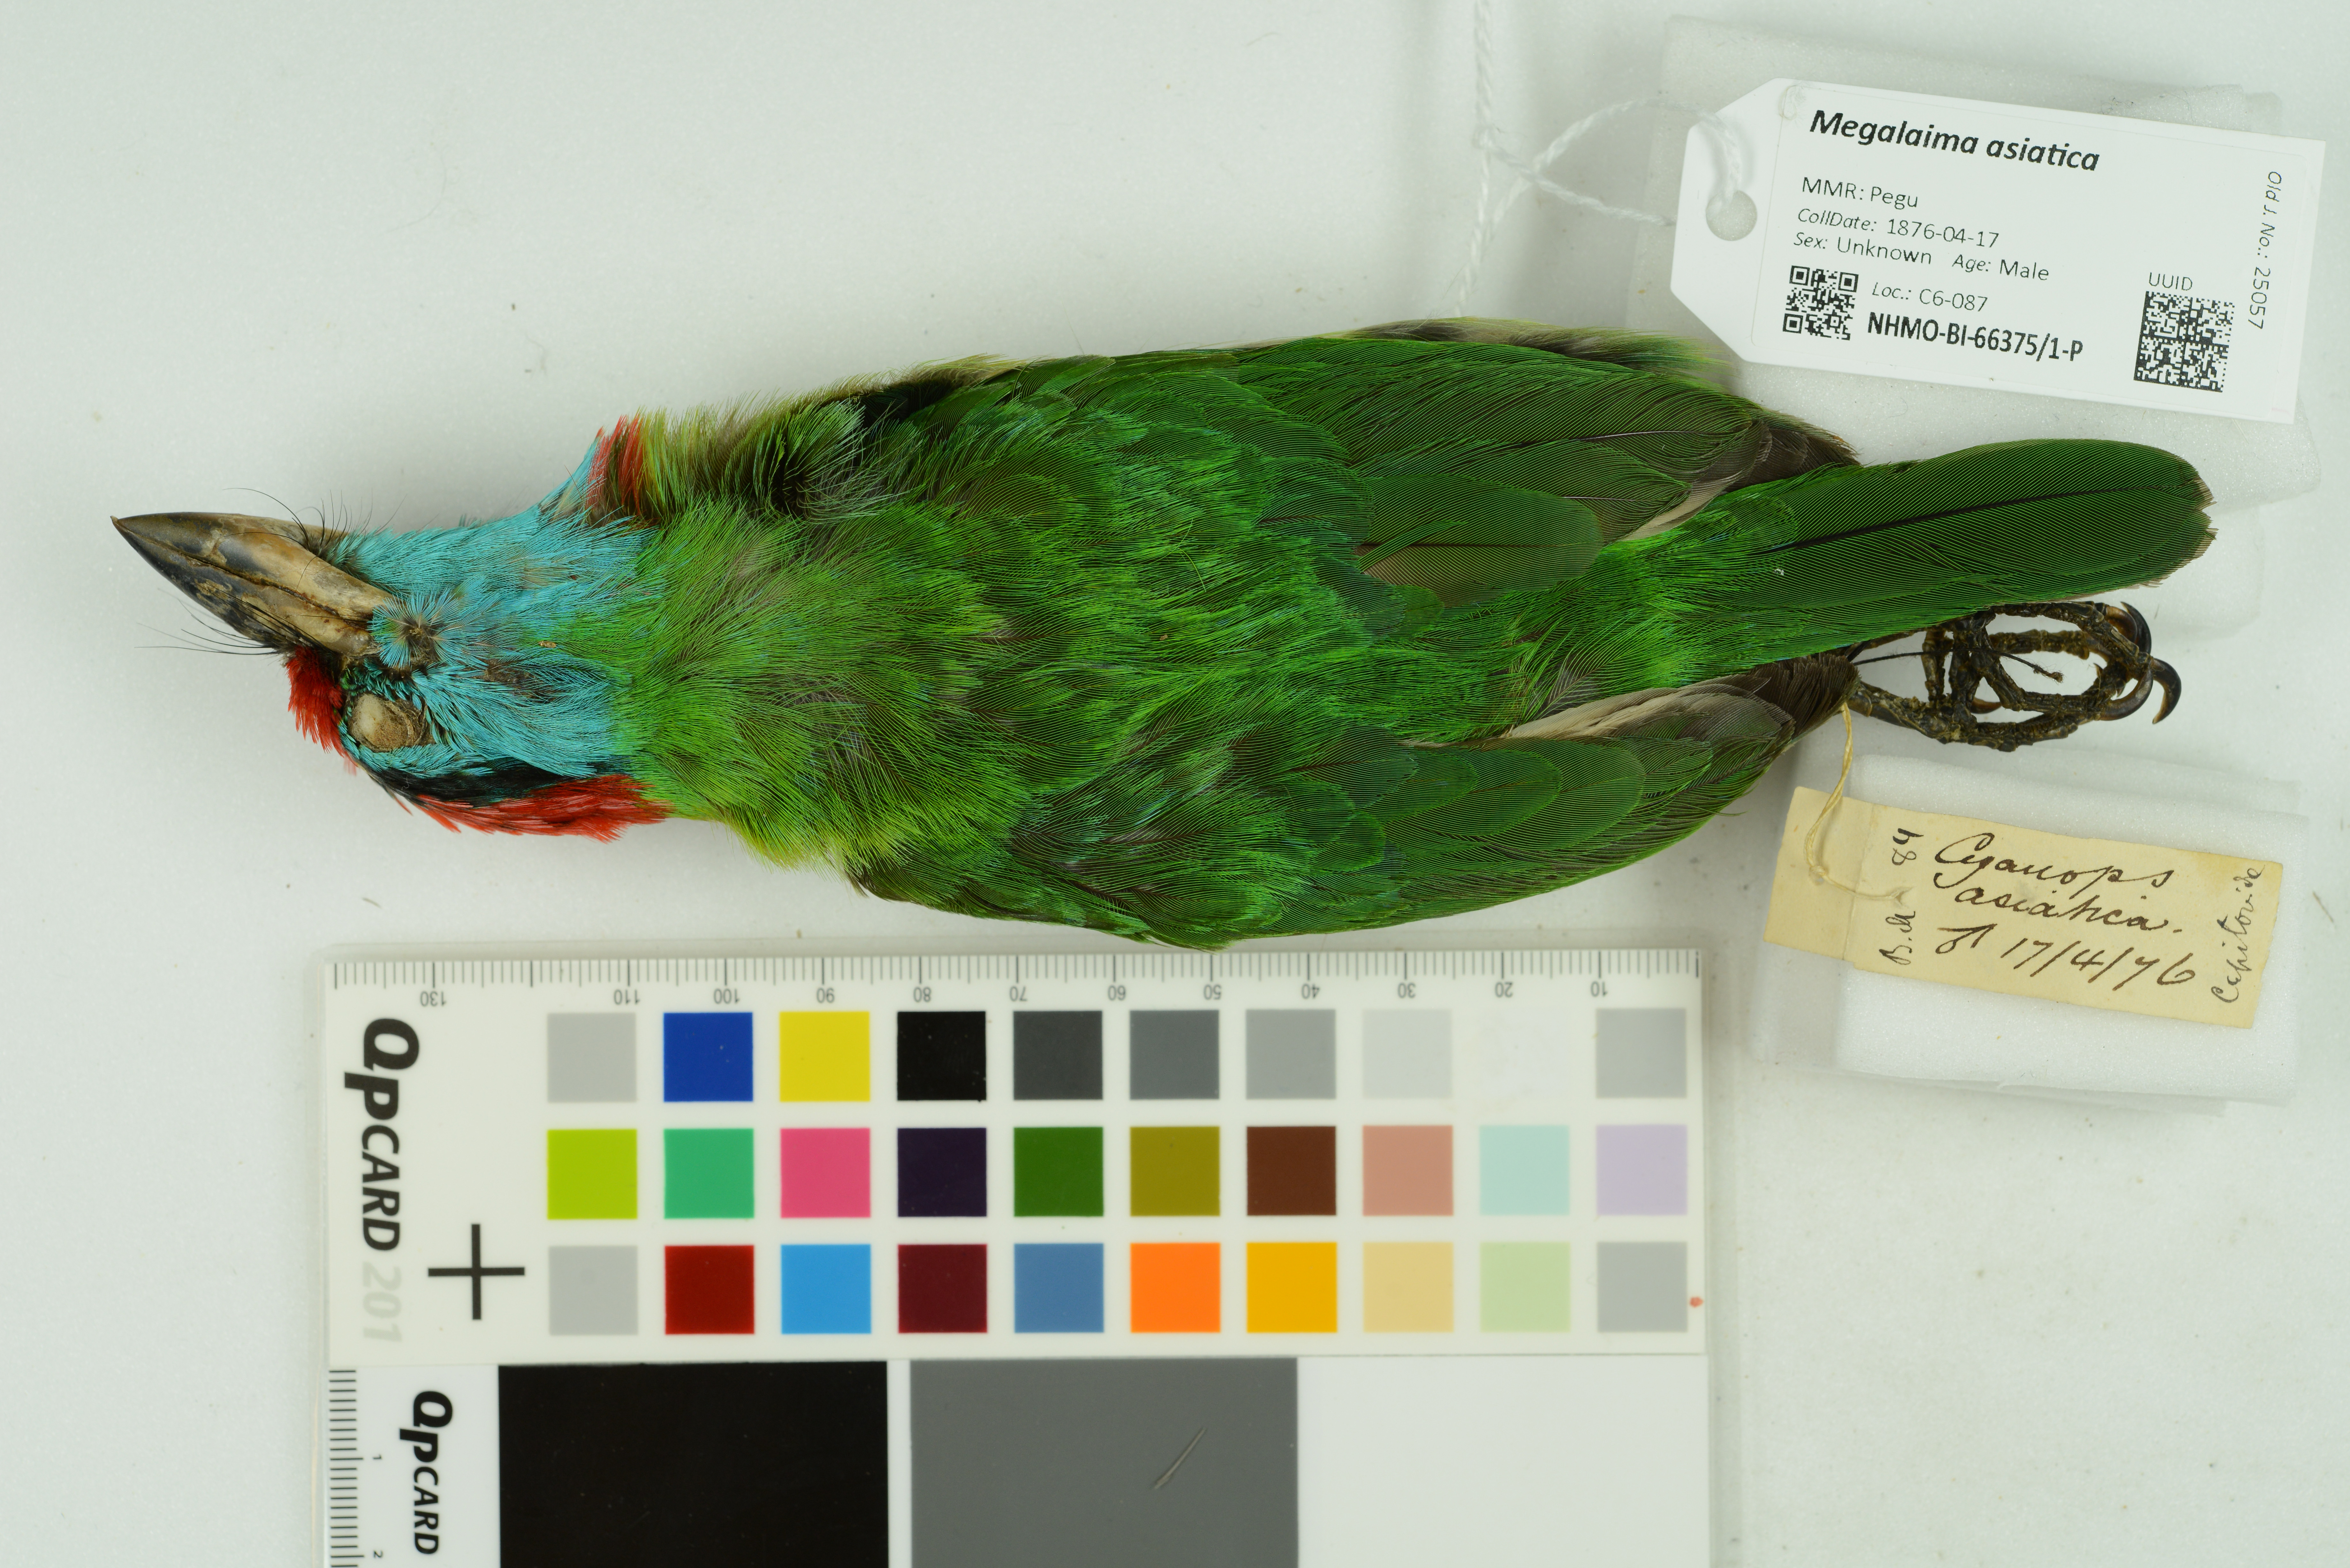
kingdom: Animalia
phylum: Chordata
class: Aves
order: Piciformes
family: Megalaimidae
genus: Psilopogon
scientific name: Psilopogon asiaticus
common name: Blue-throated barbet
